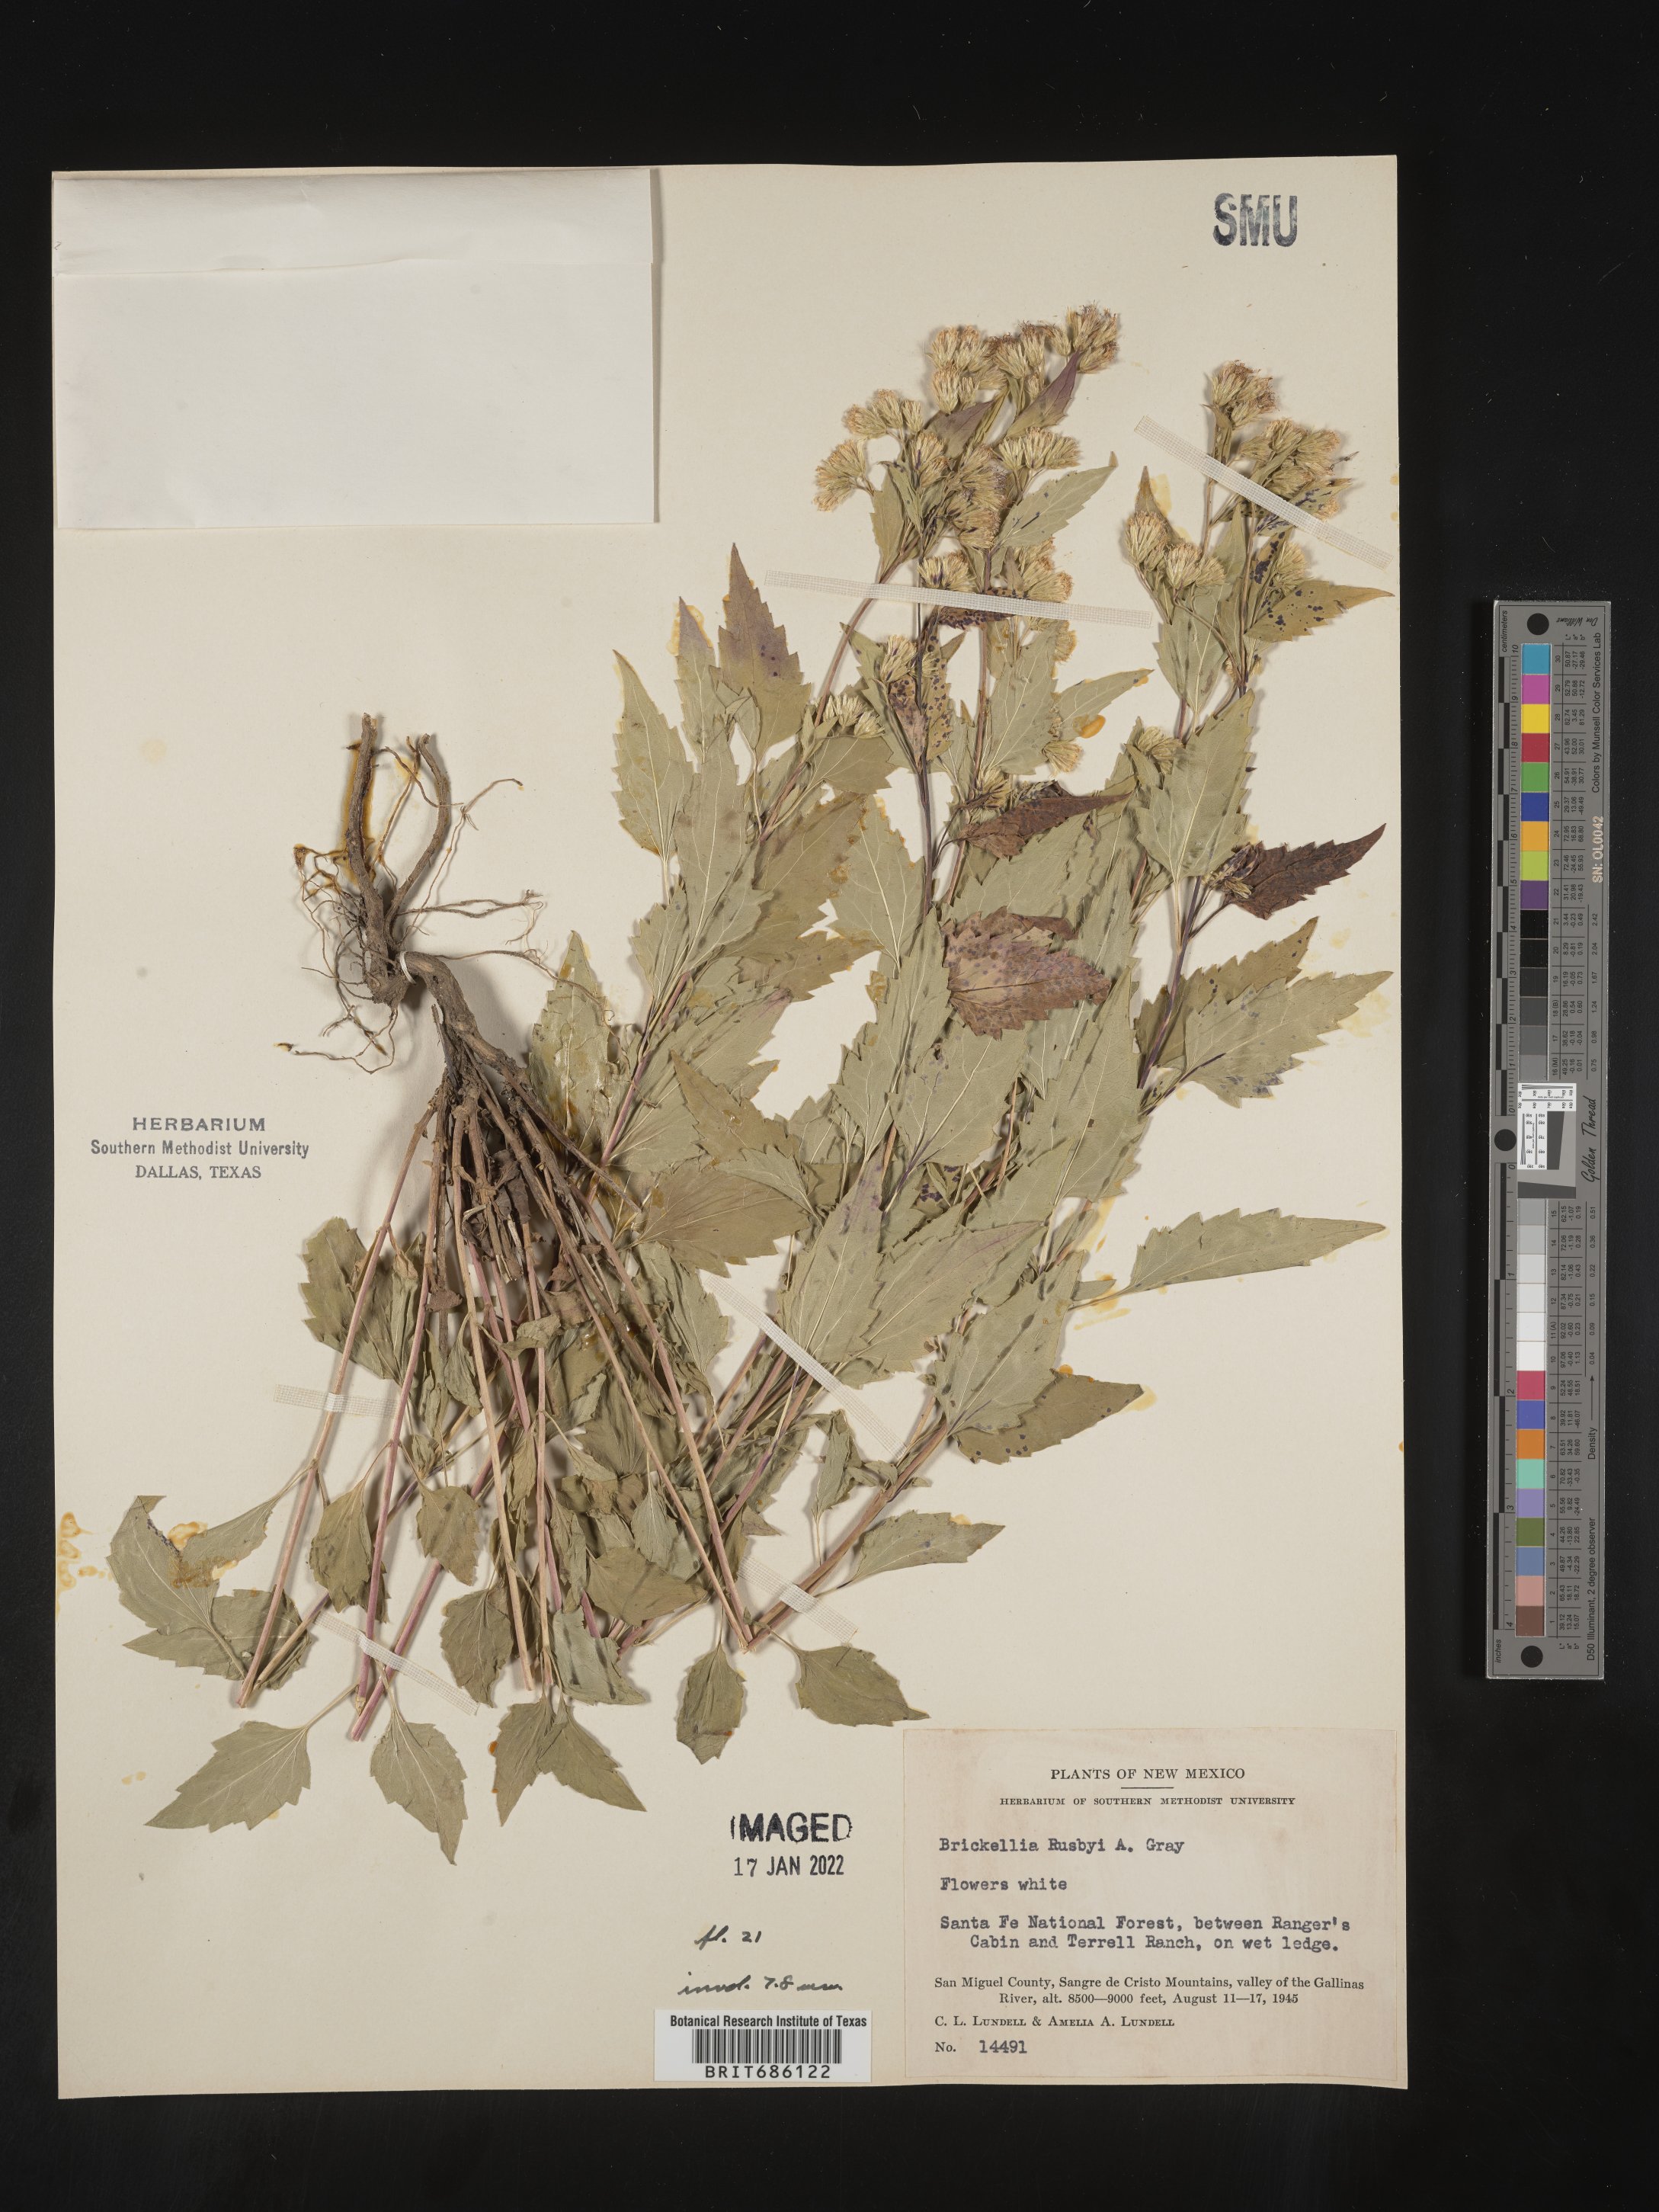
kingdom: Plantae
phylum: Tracheophyta
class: Magnoliopsida
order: Asterales
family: Asteraceae
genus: Brickellia
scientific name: Brickellia rusbyi
